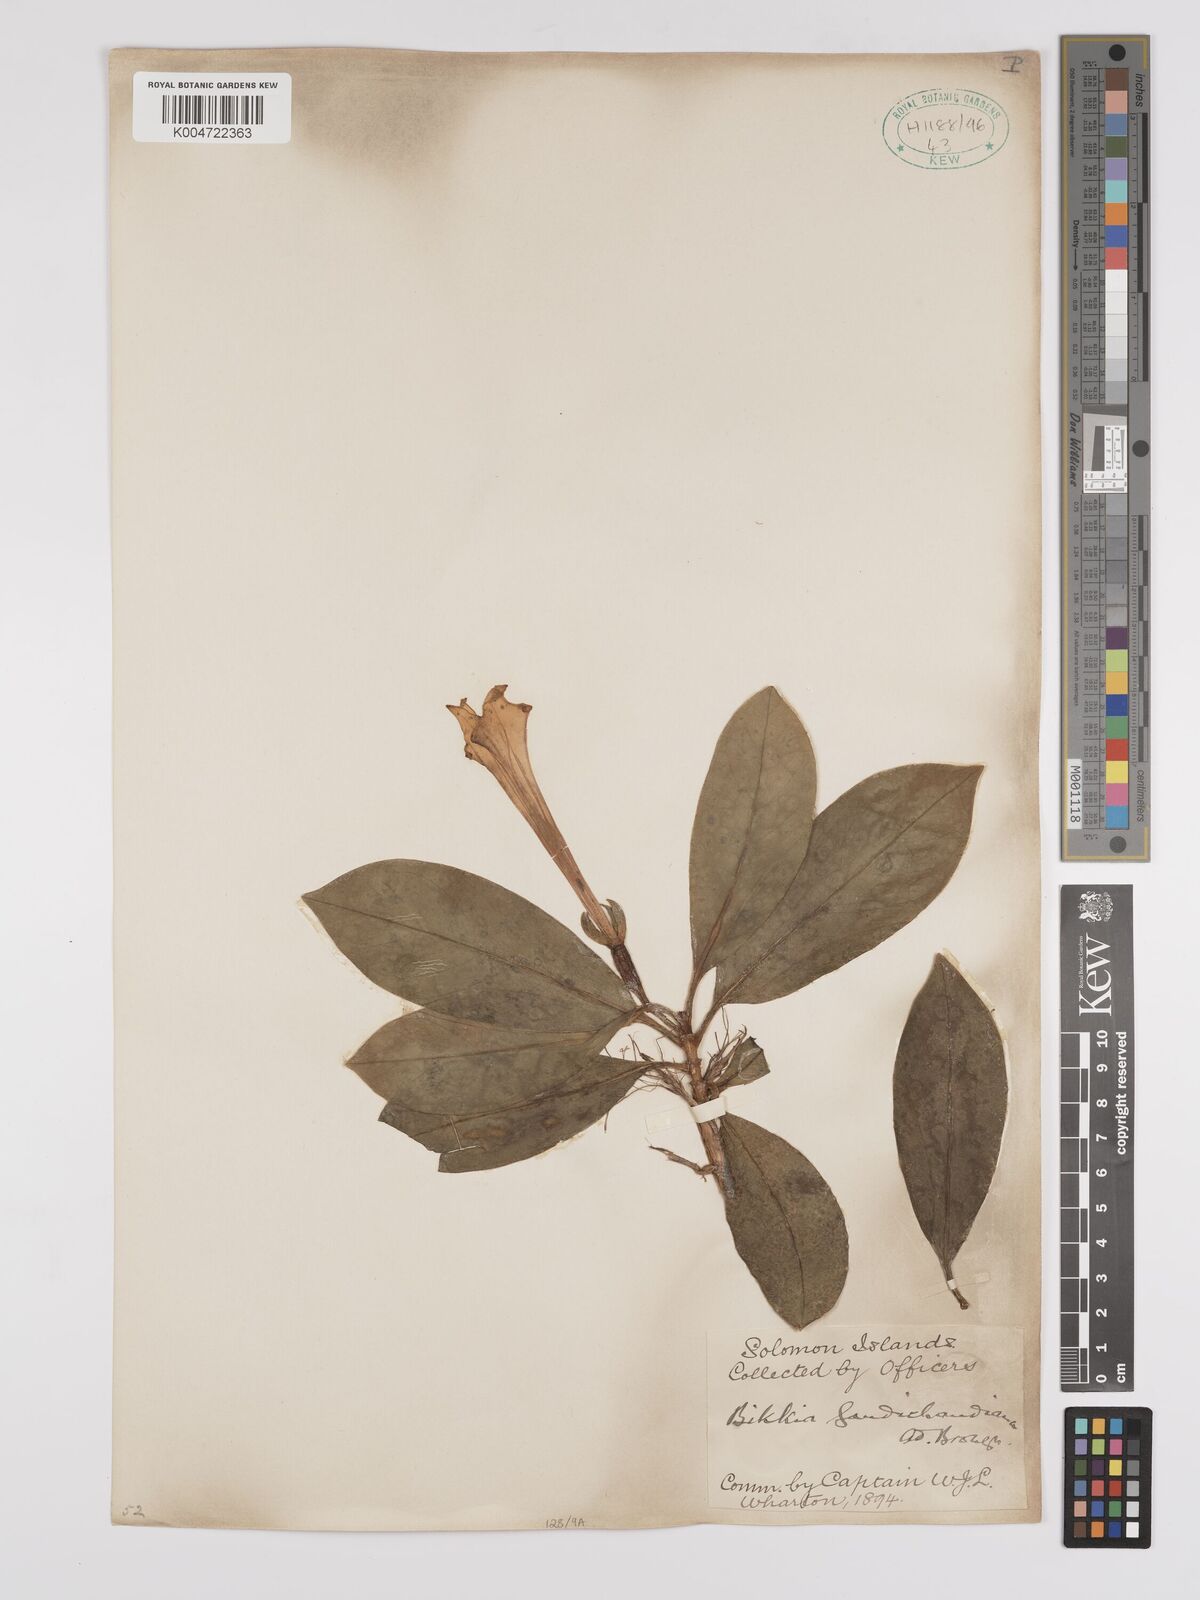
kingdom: Plantae
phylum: Tracheophyta
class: Magnoliopsida
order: Gentianales
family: Rubiaceae
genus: Bikkia
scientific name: Bikkia gaudichaudiana
